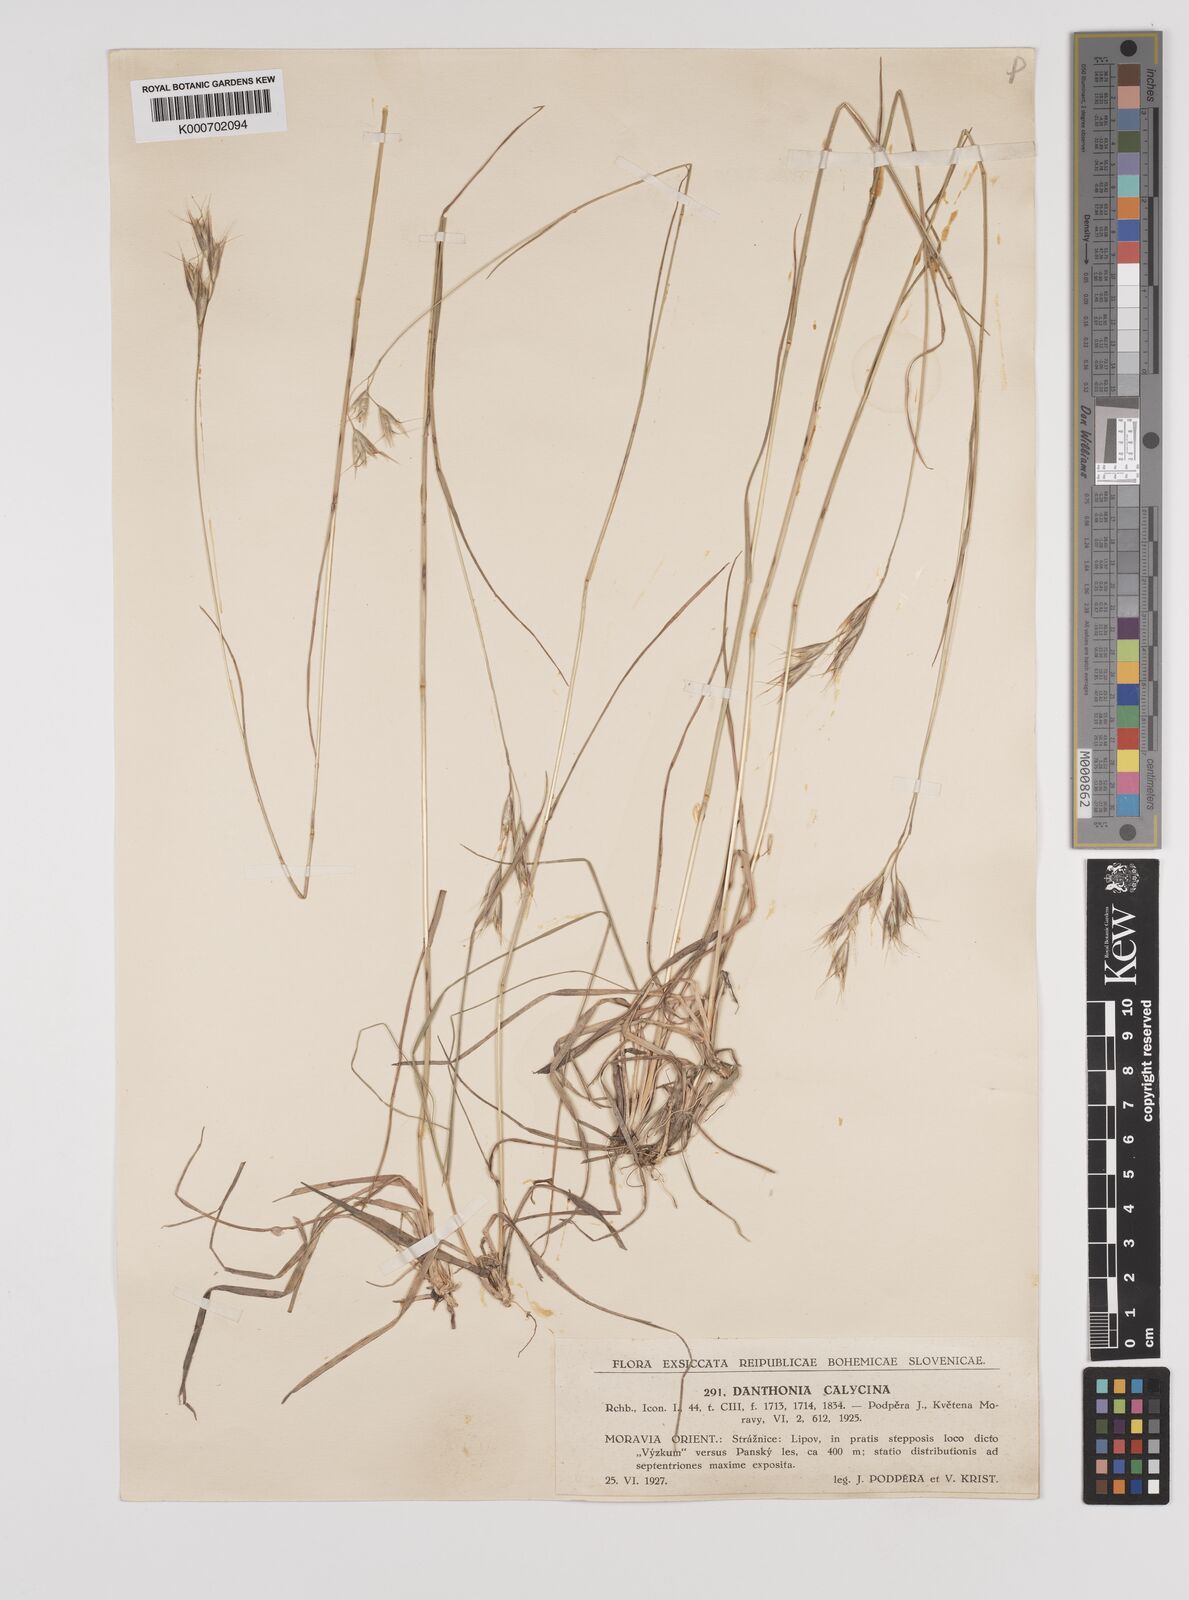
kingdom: Plantae
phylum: Tracheophyta
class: Liliopsida
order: Poales
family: Poaceae
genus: Danthonia
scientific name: Danthonia alpina
